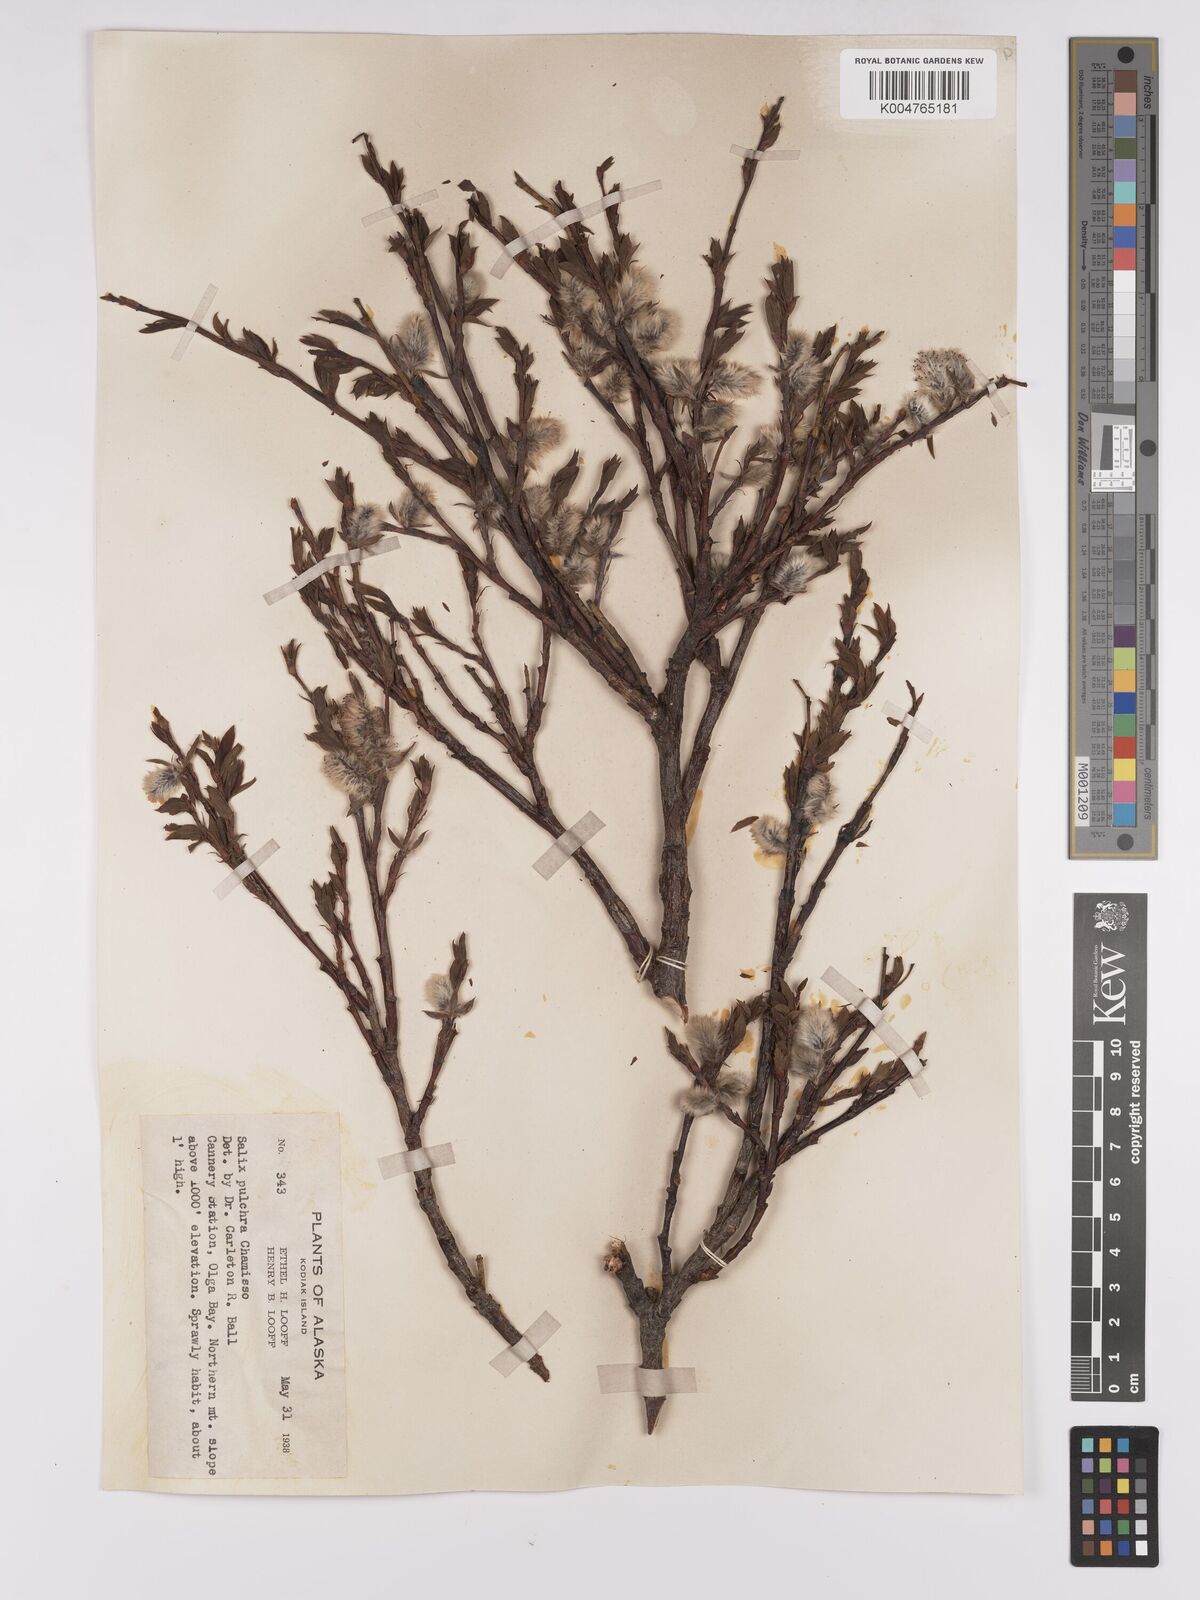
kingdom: Plantae
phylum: Tracheophyta
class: Magnoliopsida
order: Malpighiales
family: Salicaceae
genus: Salix
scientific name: Salix
